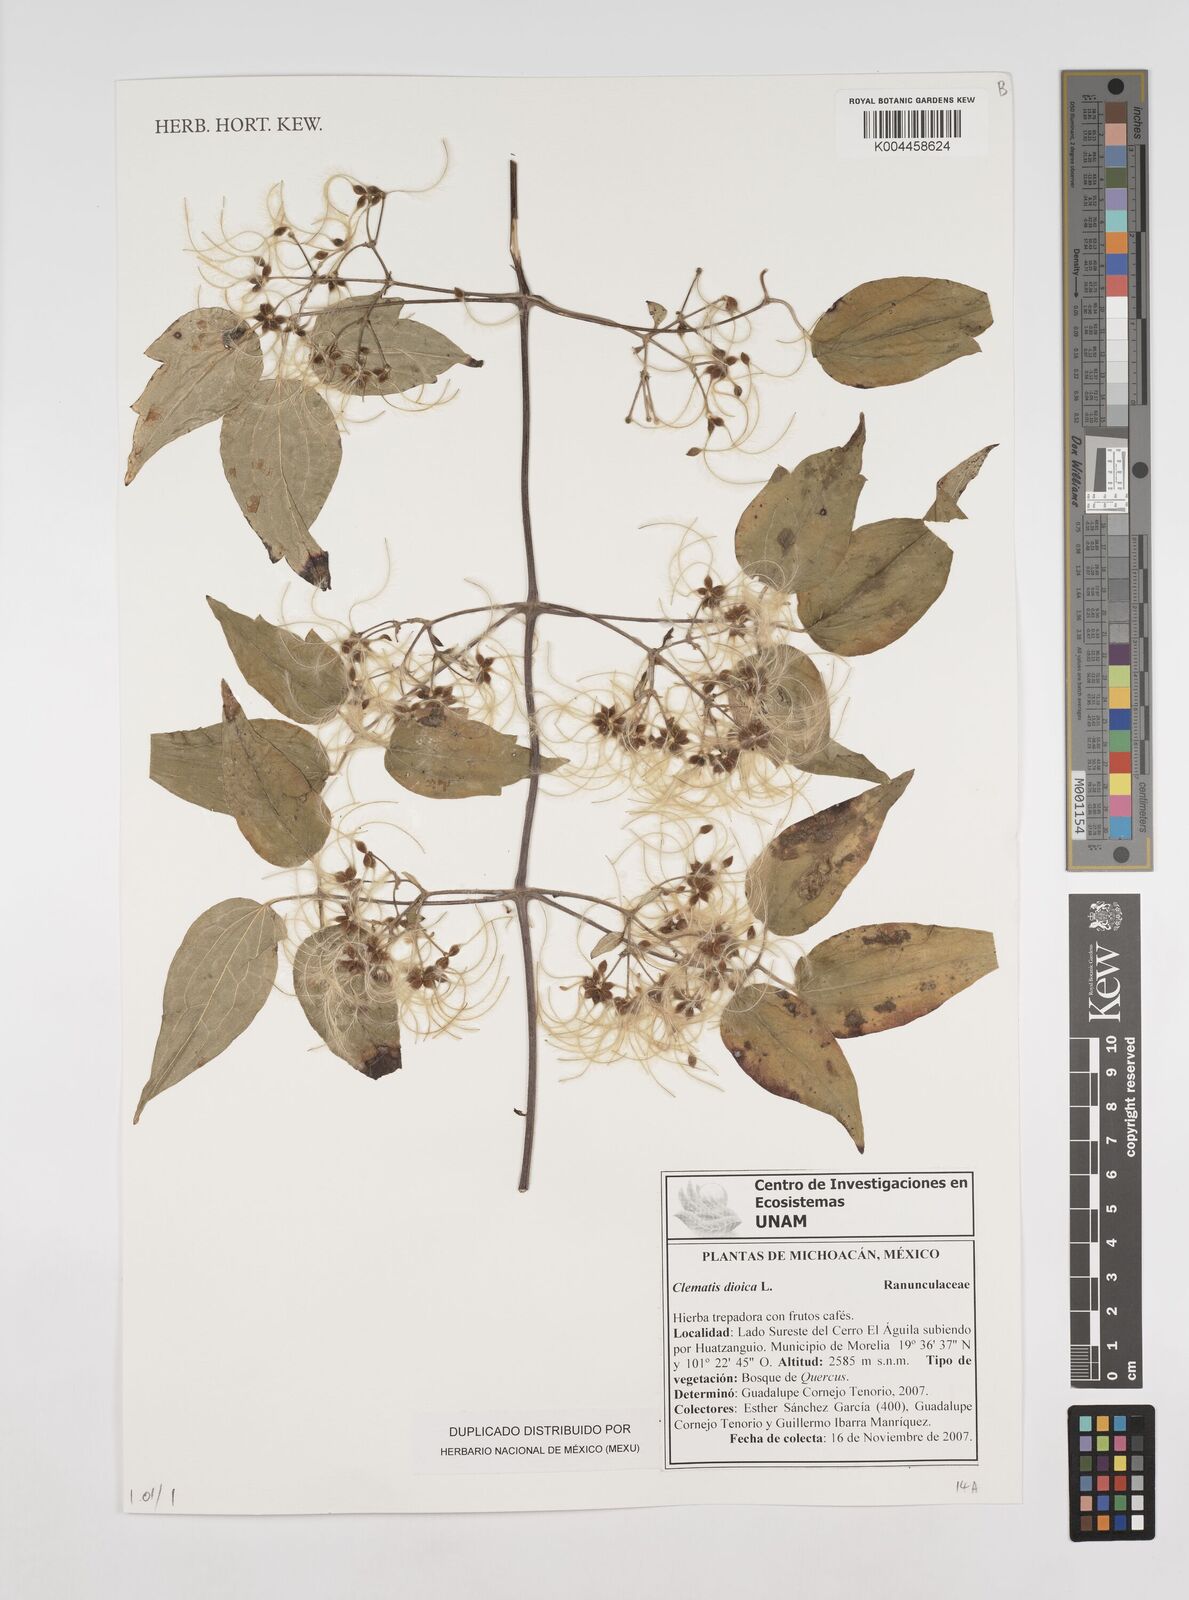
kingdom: Plantae
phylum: Tracheophyta
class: Magnoliopsida
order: Ranunculales
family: Ranunculaceae
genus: Clematis
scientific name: Clematis dioica
